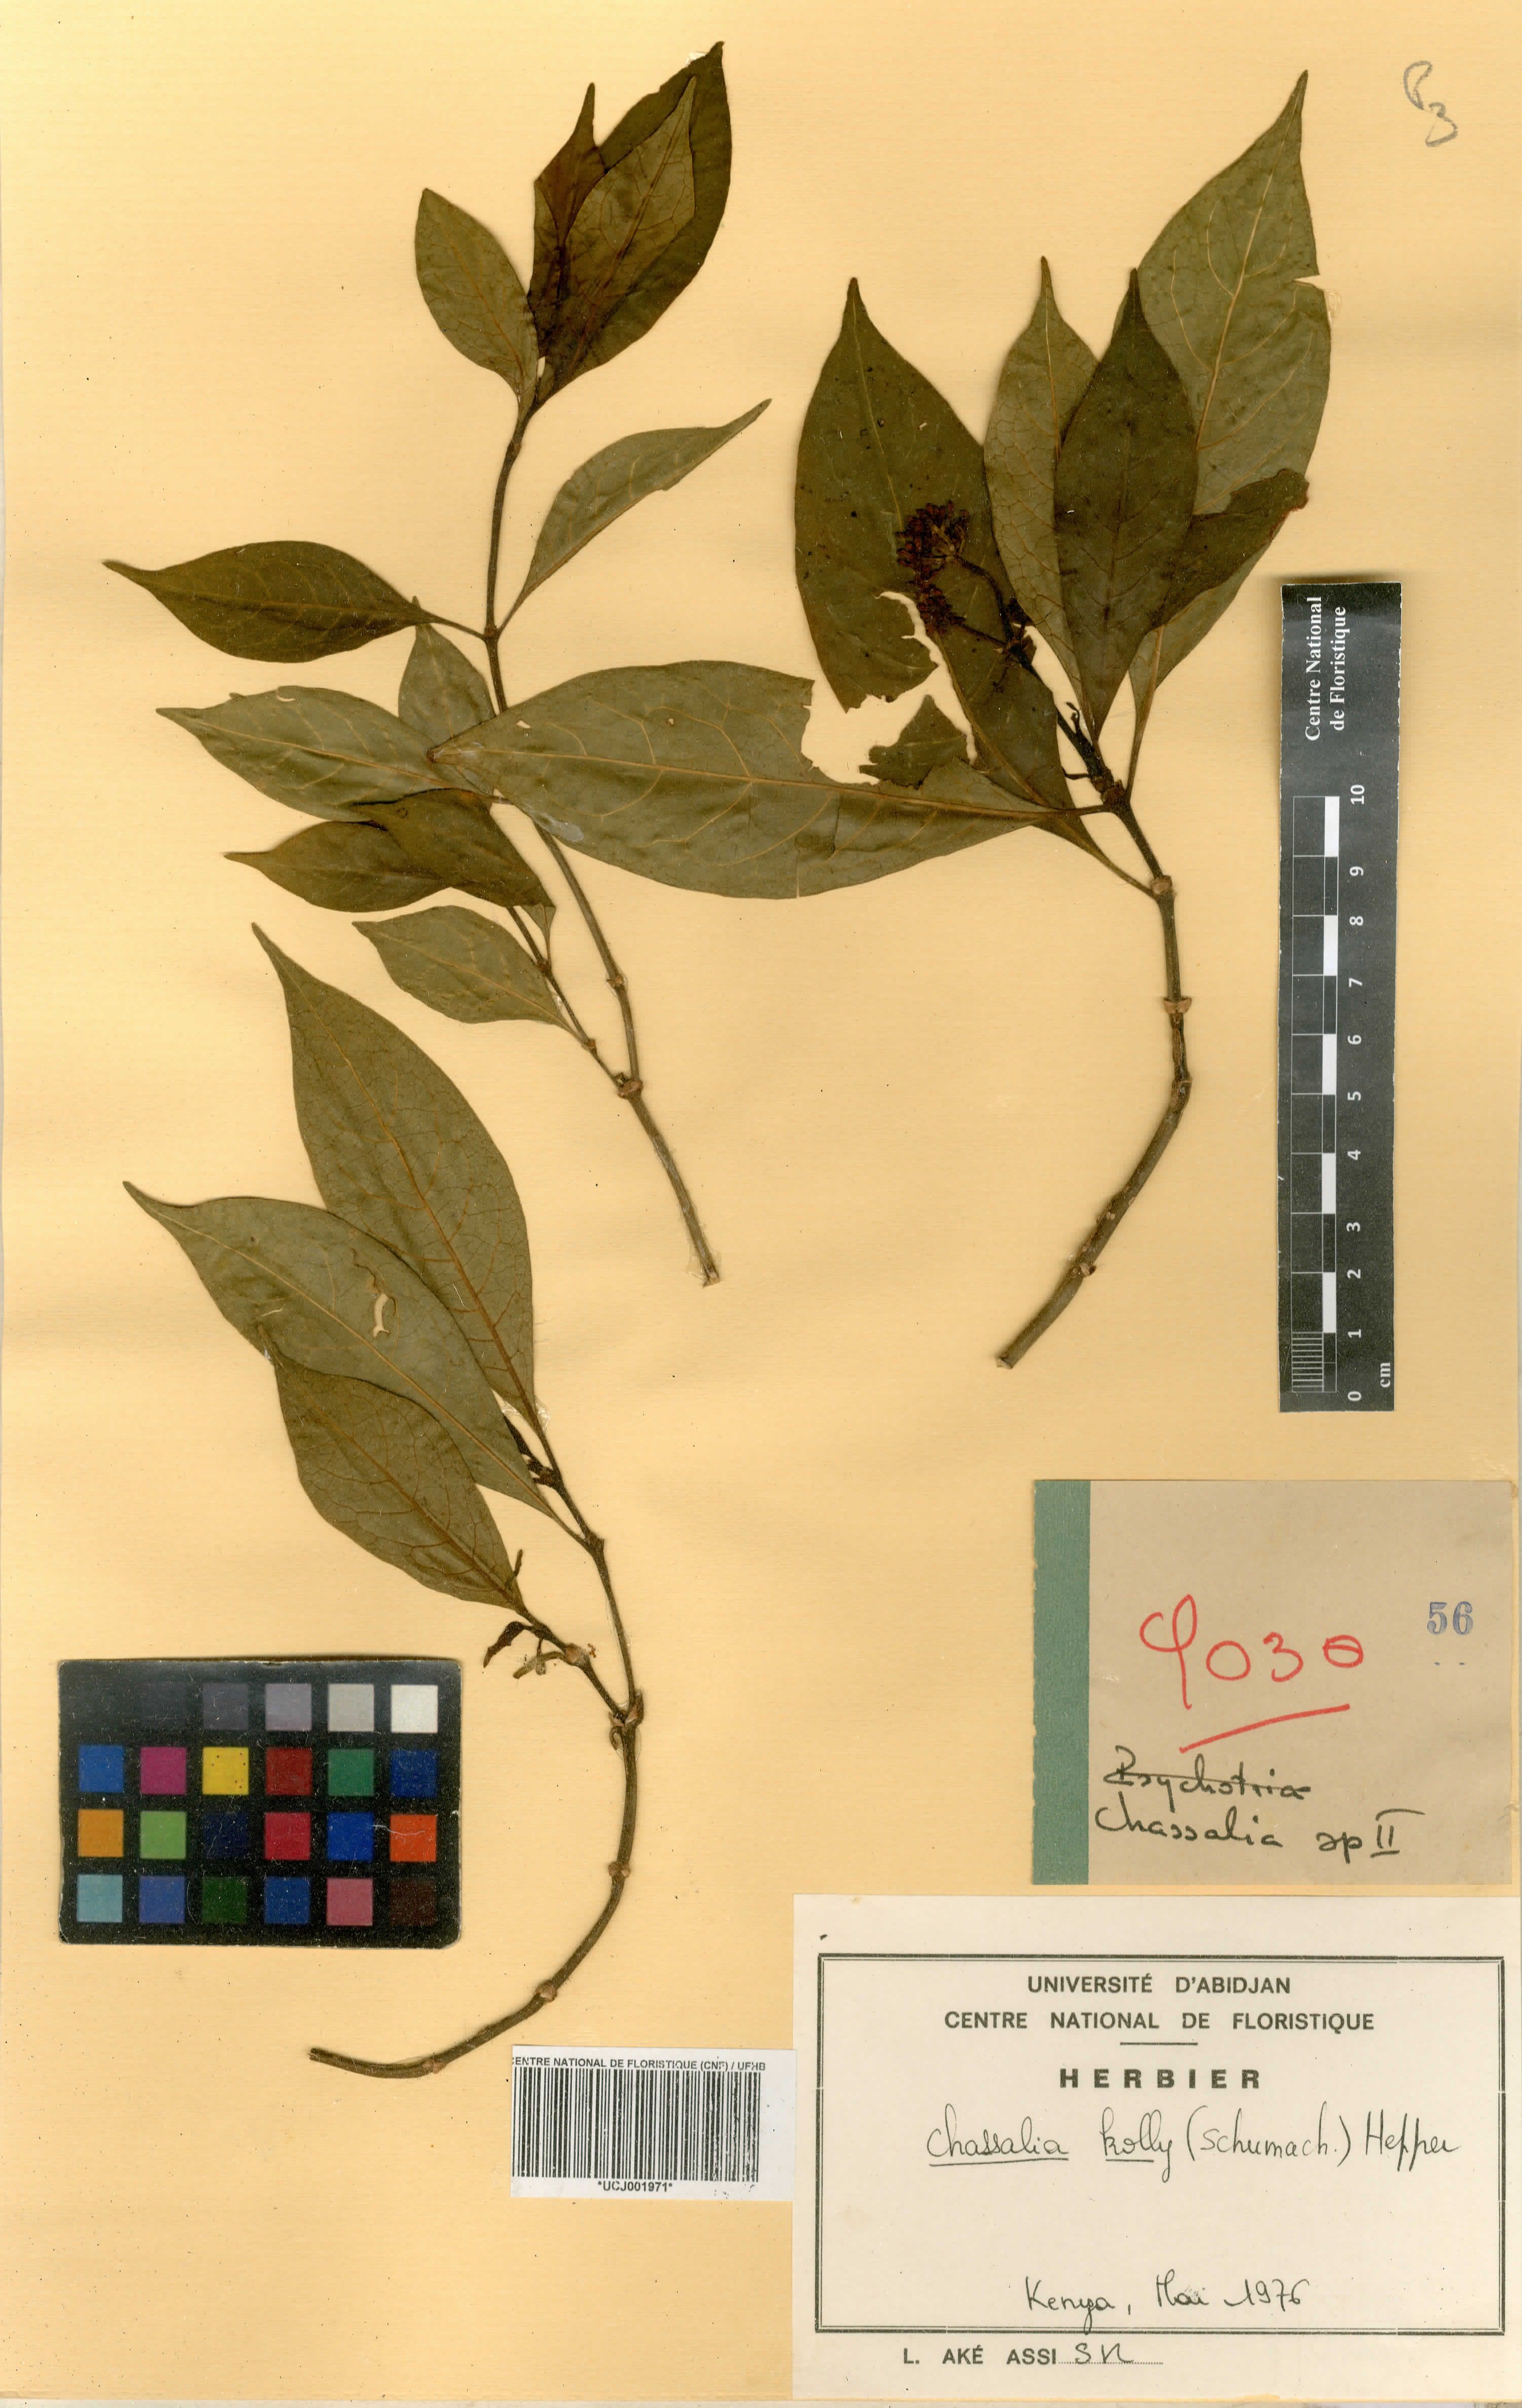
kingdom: Plantae
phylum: Tracheophyta
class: Magnoliopsida
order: Gentianales
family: Rubiaceae
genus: Chassalia
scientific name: Chassalia kolly
